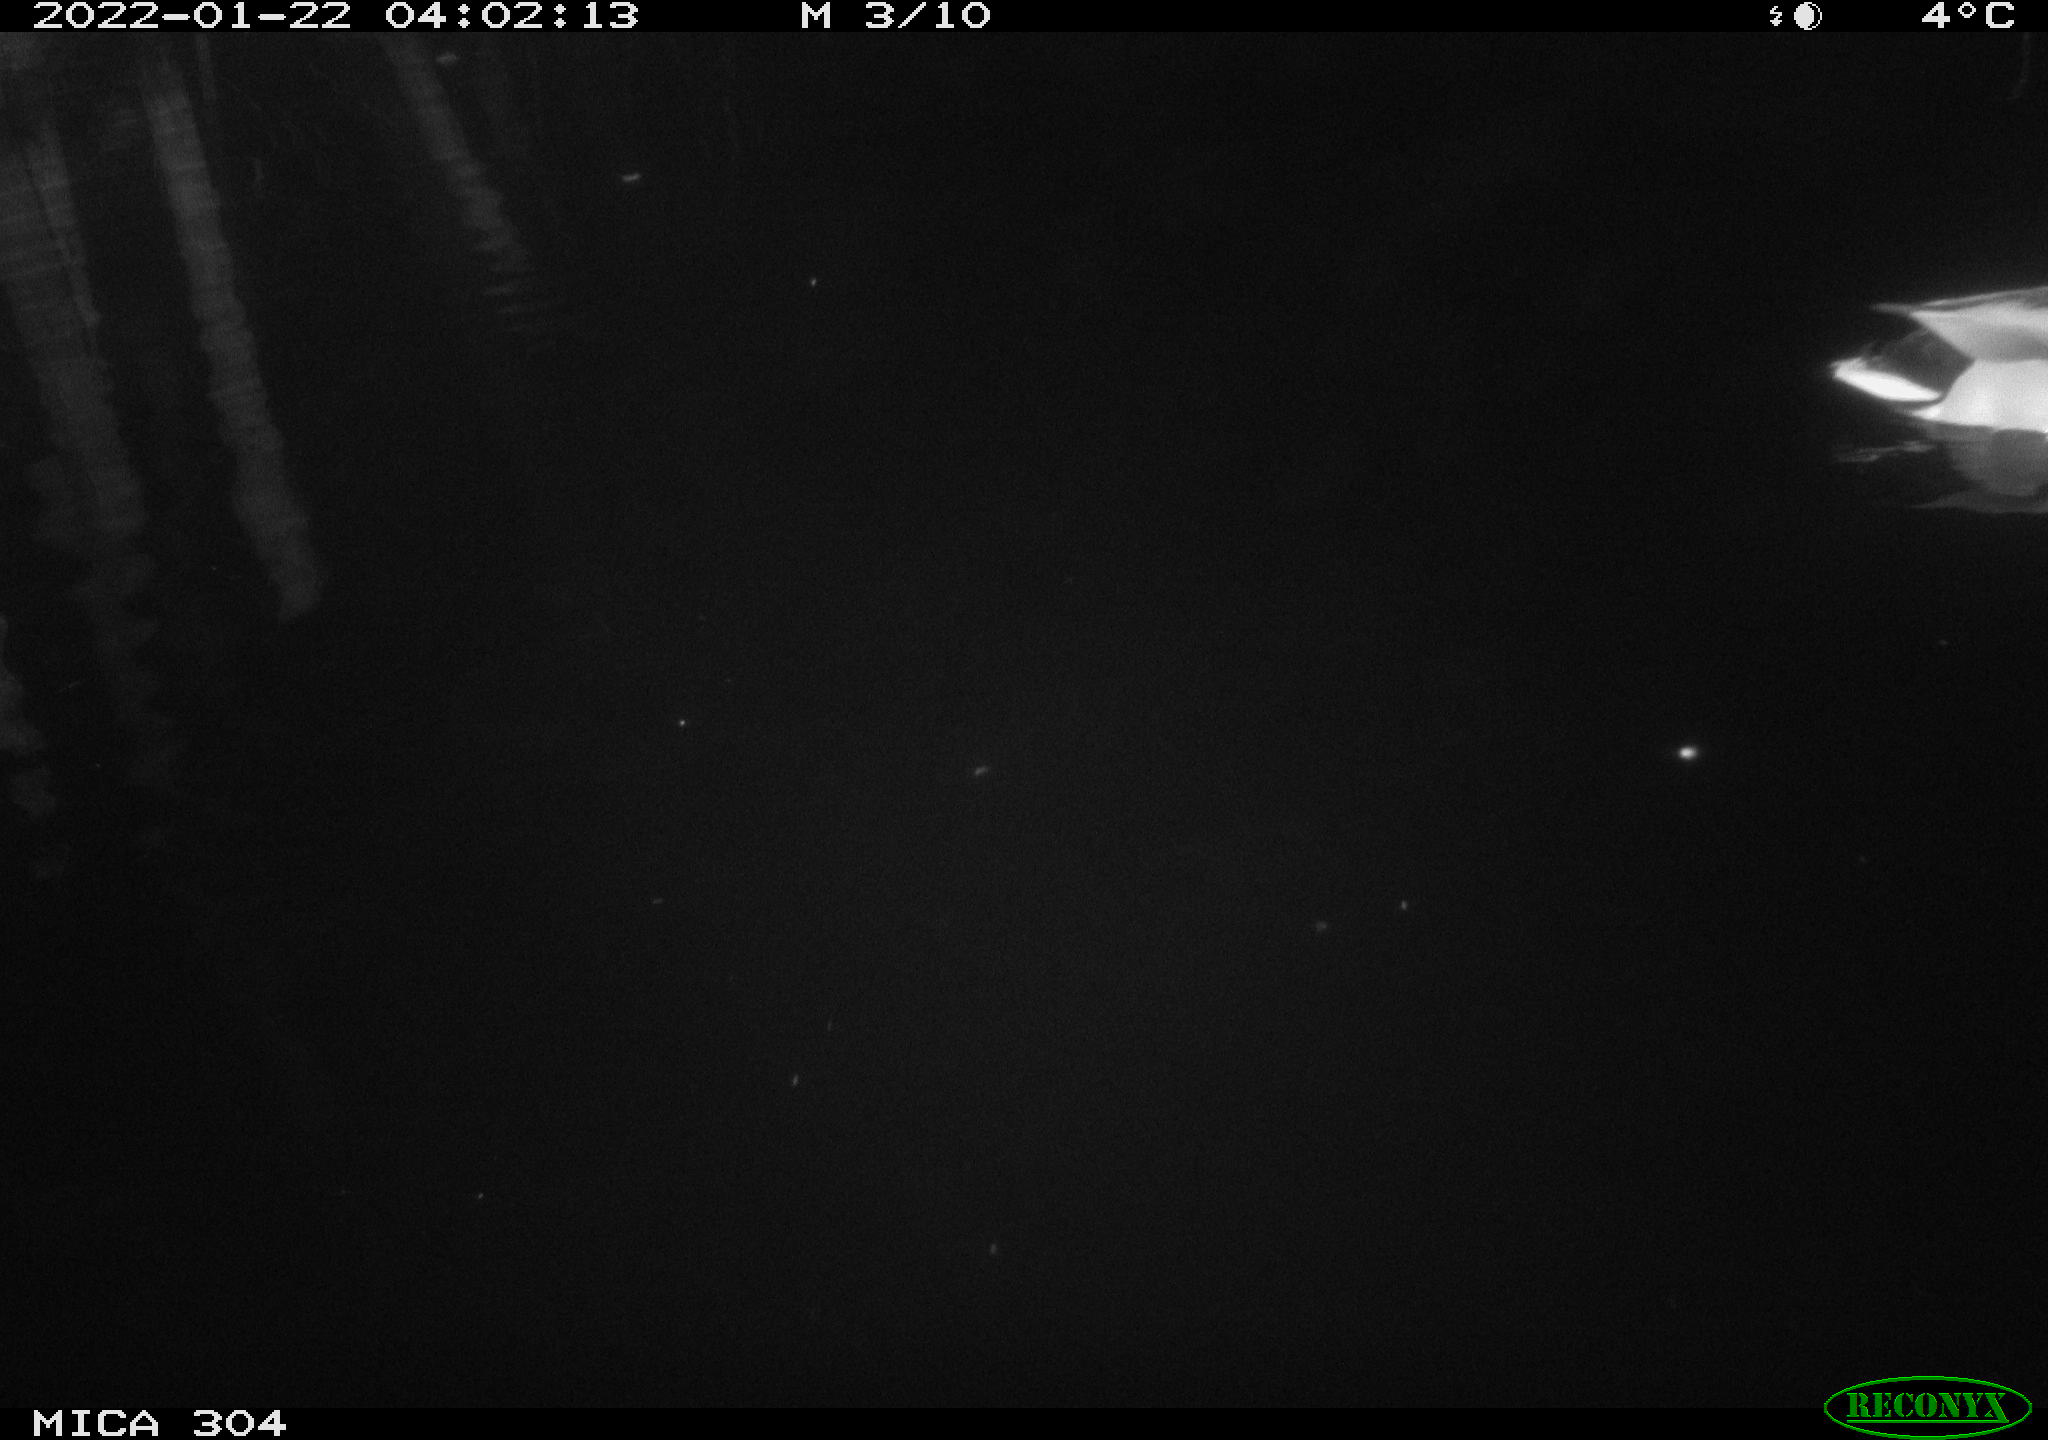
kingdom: Animalia
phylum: Chordata
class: Aves
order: Anseriformes
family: Anatidae
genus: Anas
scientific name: Anas
